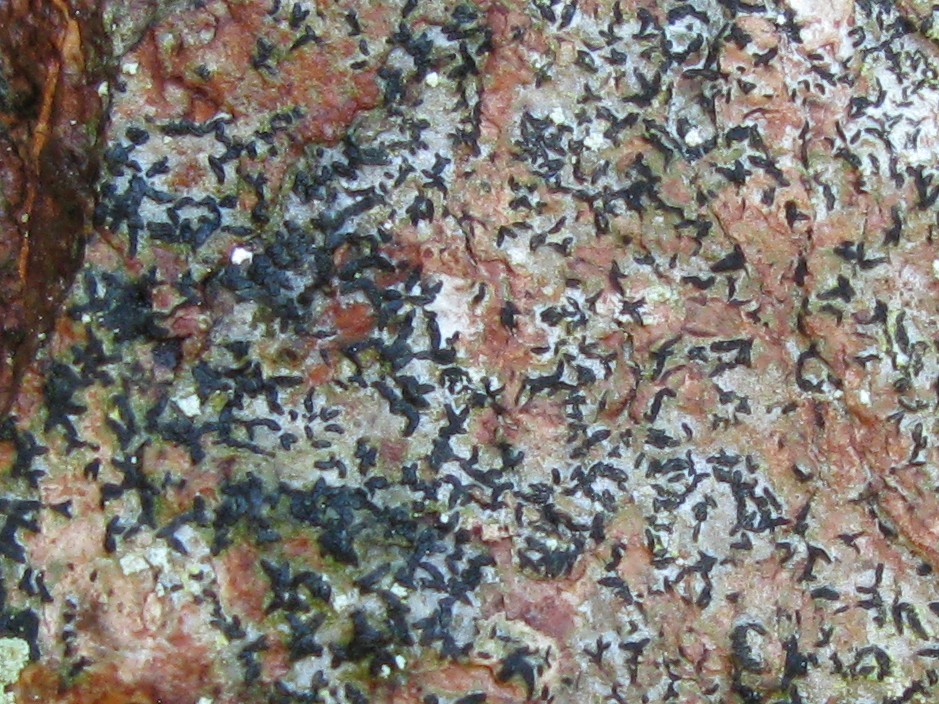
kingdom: Fungi
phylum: Ascomycota
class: Arthoniomycetes
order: Arthoniales
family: Lecanographaceae
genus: Alyxoria
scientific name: Alyxoria varia
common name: almindelig bogstavlav
